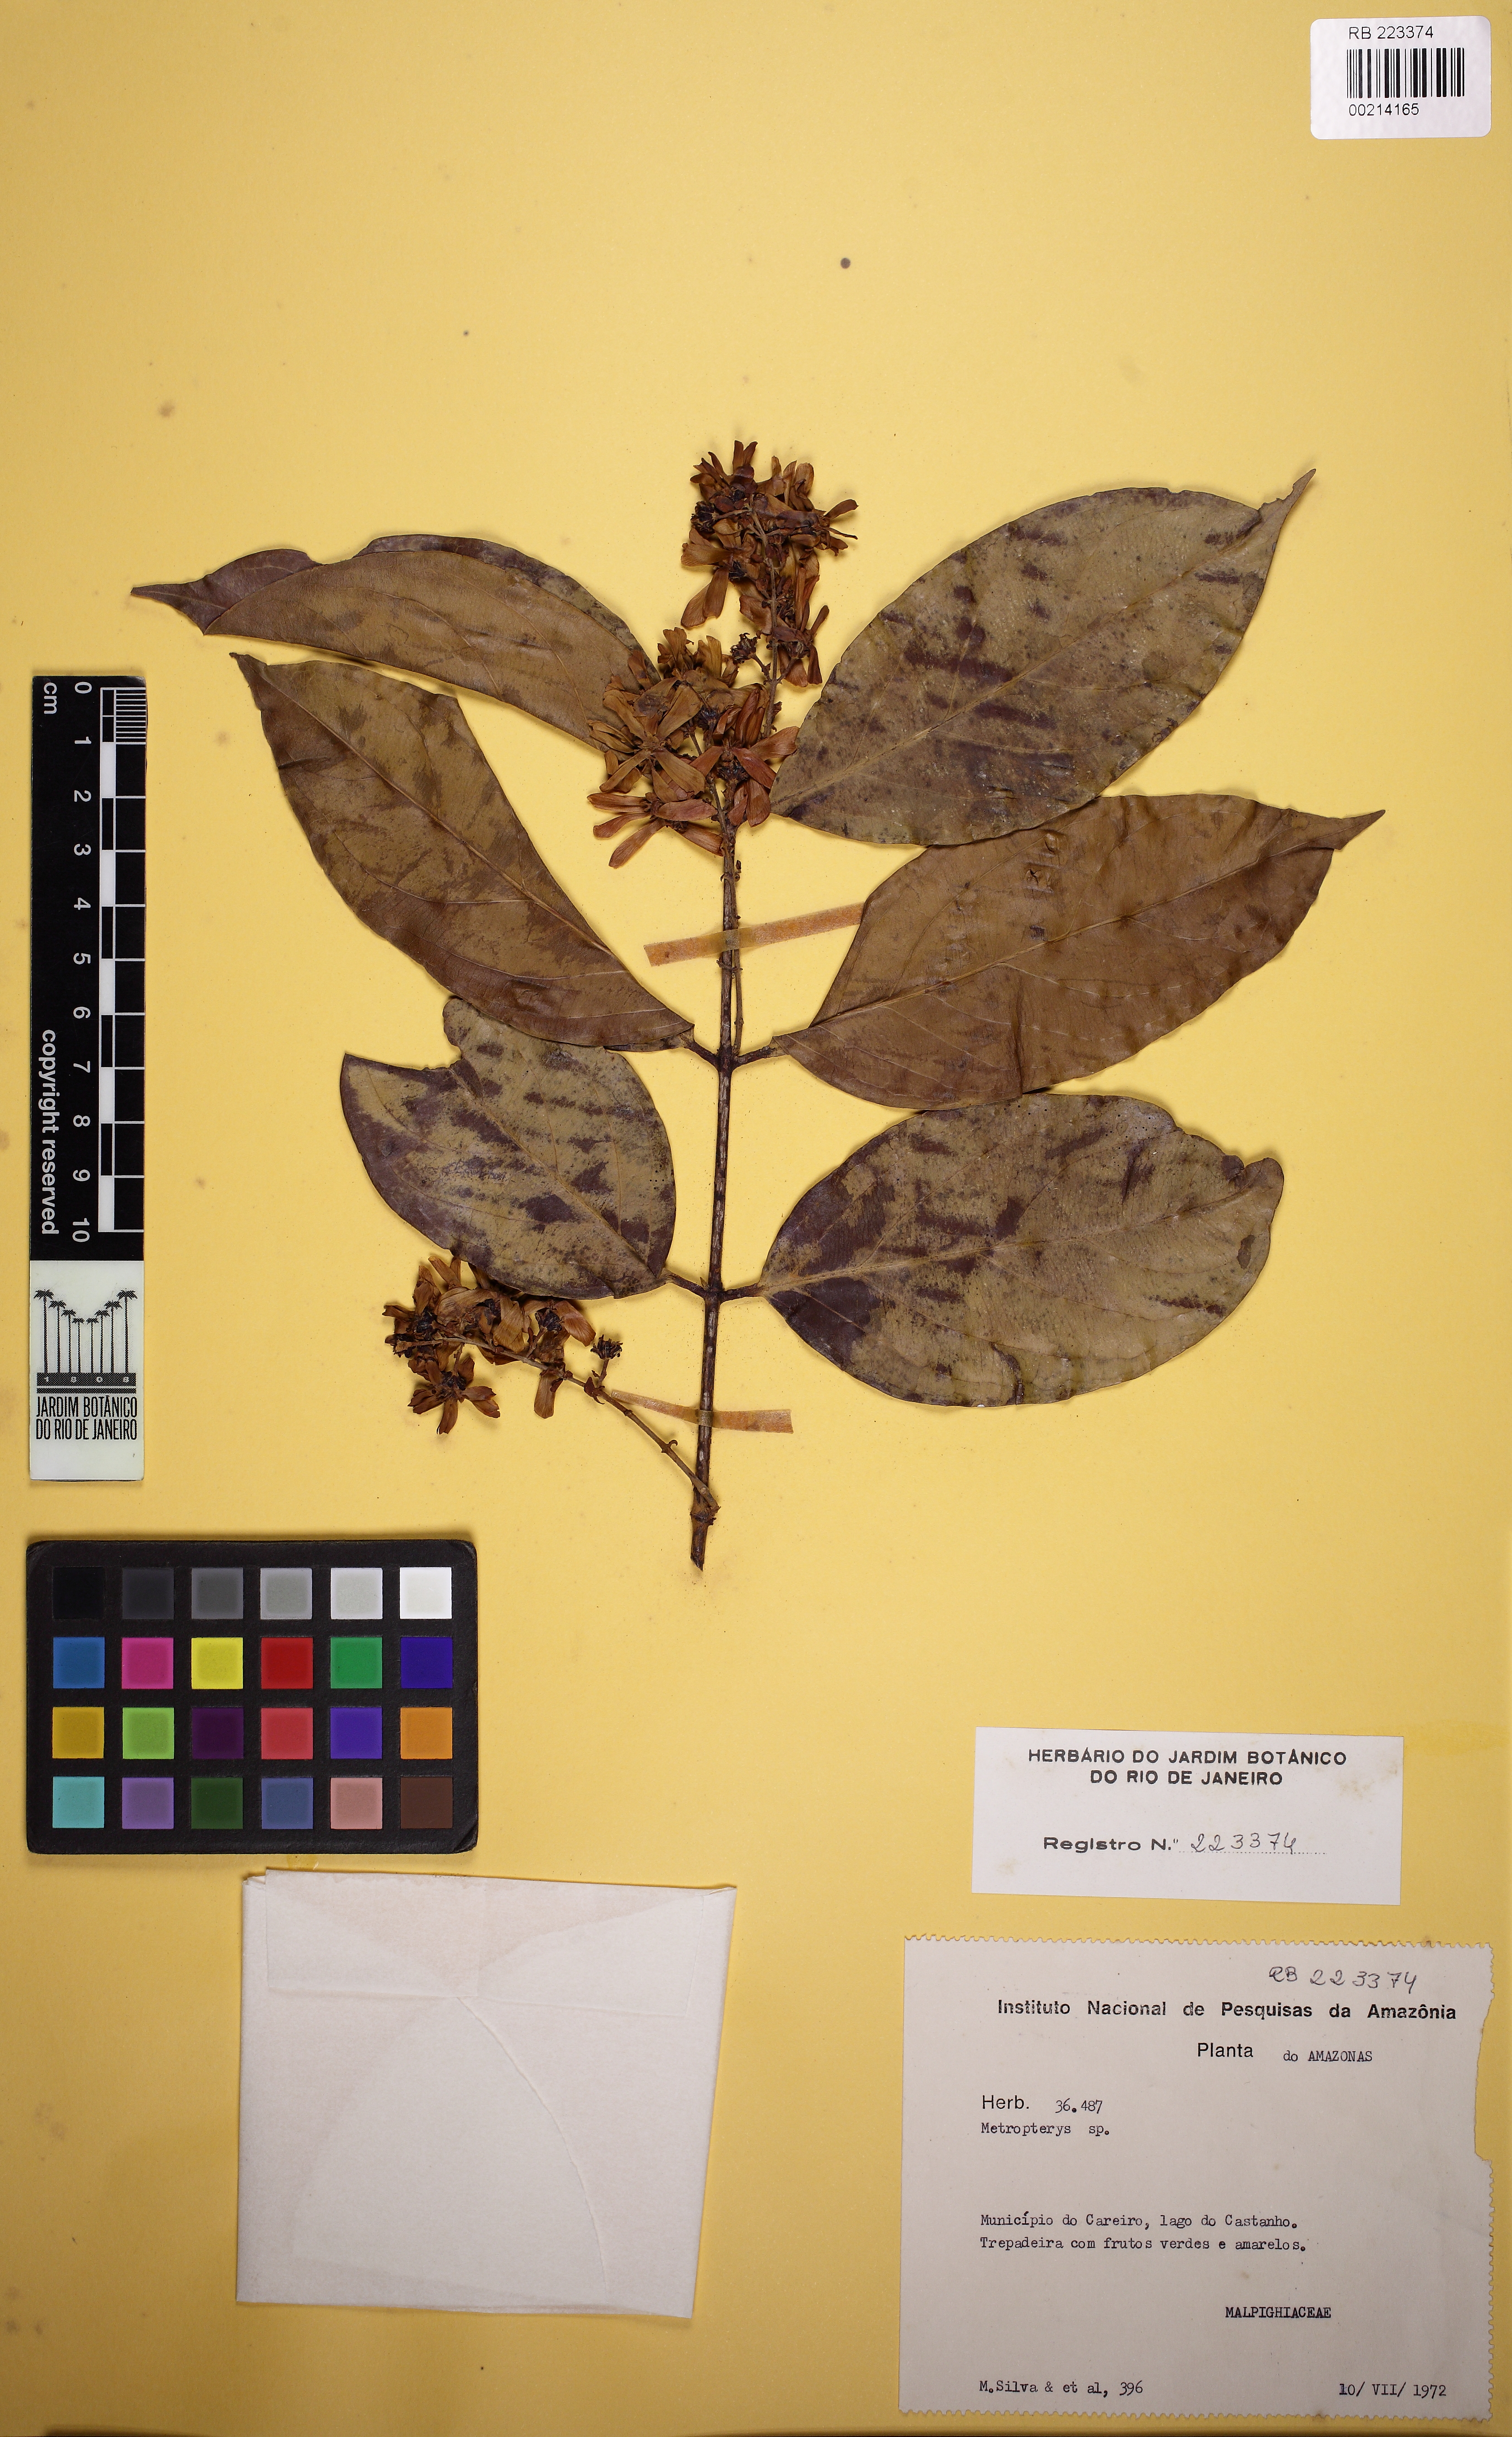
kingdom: Plantae
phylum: Tracheophyta
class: Magnoliopsida
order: Malpighiales
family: Malpighiaceae
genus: Heteropterys
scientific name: Heteropterys
